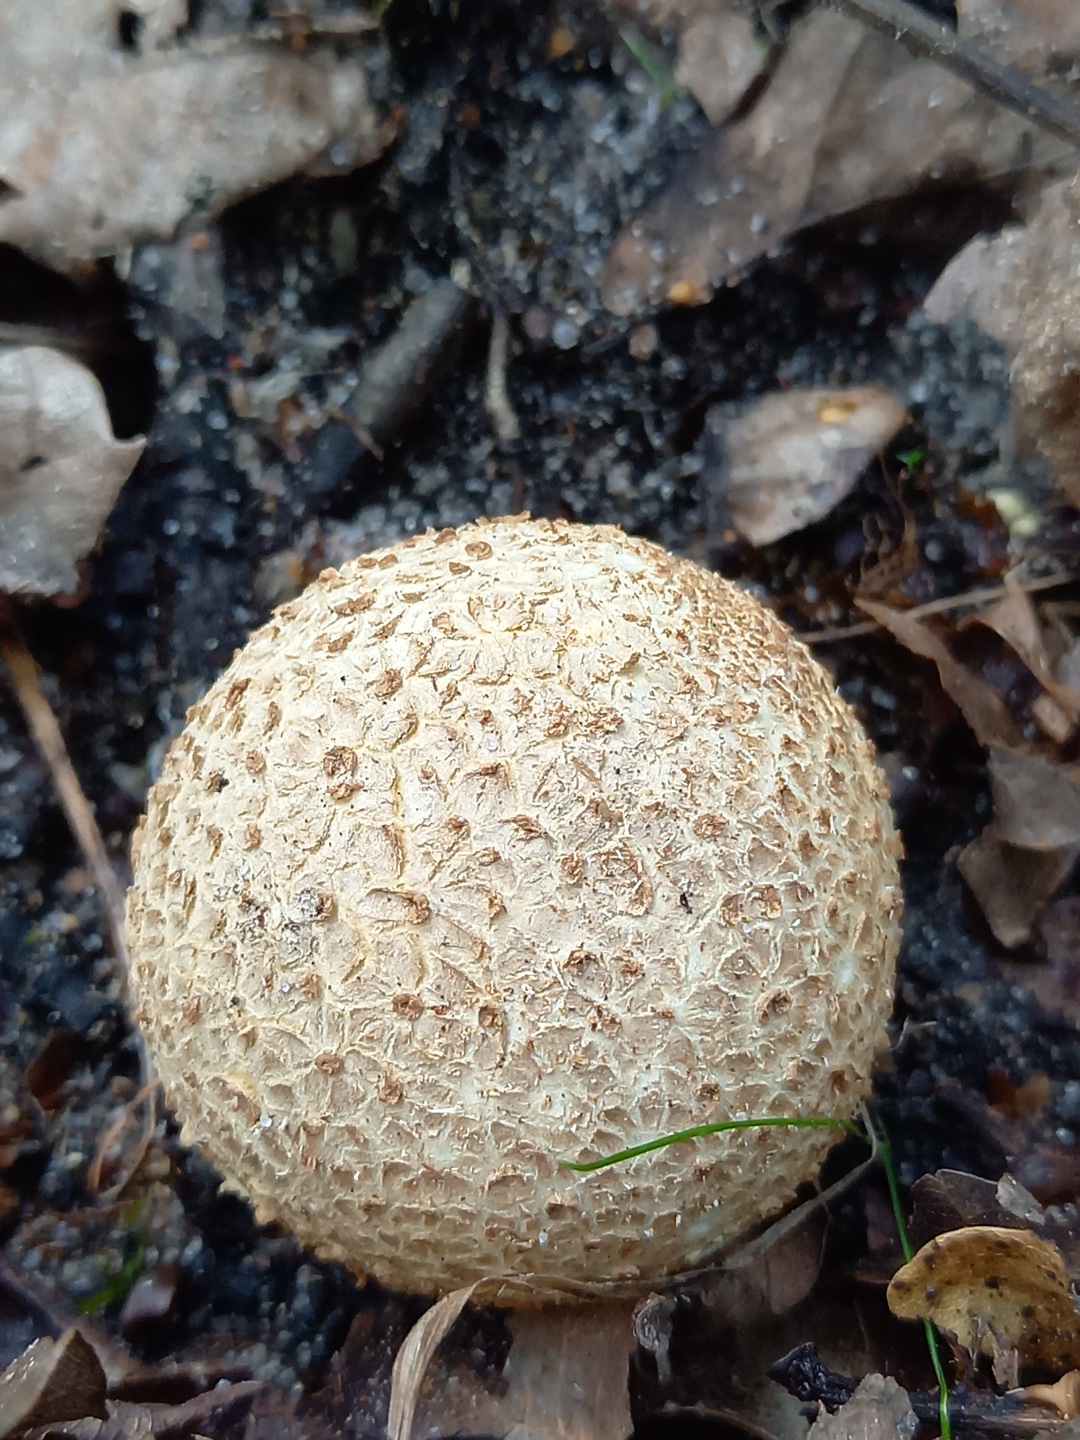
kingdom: Fungi
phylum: Basidiomycota
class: Agaricomycetes
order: Boletales
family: Sclerodermataceae
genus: Scleroderma
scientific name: Scleroderma citrinum
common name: almindelig bruskbold
